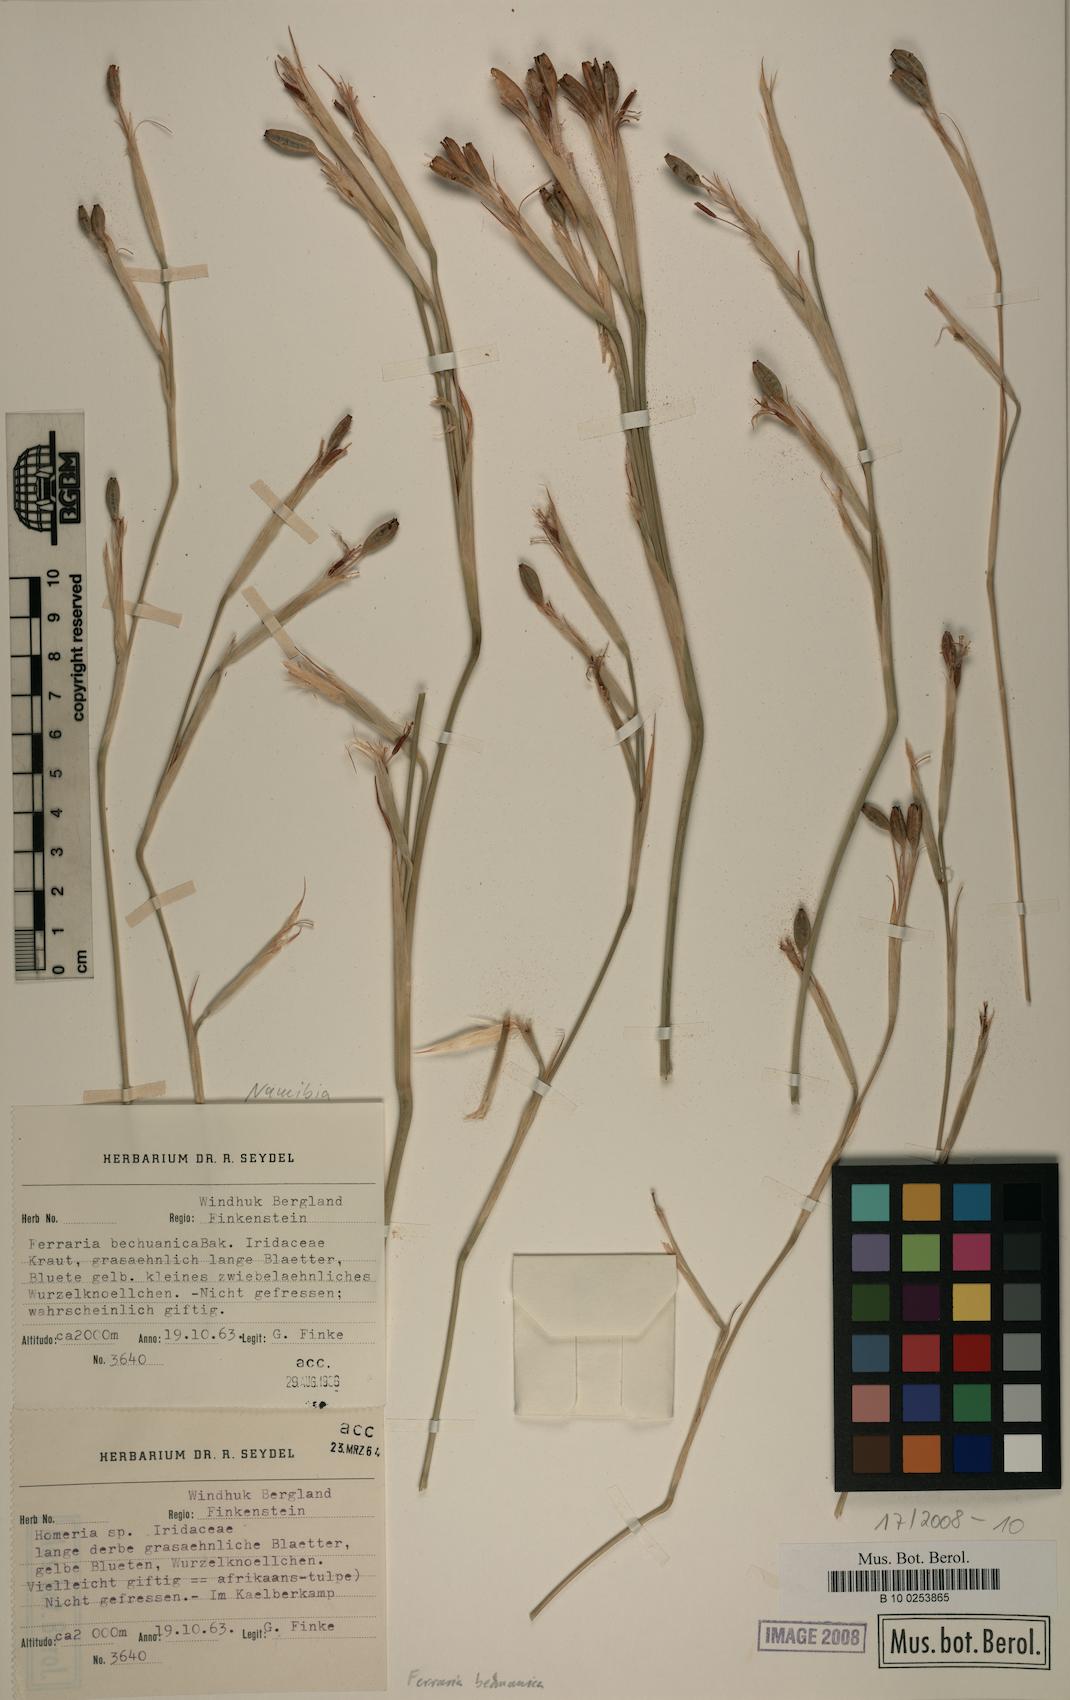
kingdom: Plantae
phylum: Tracheophyta
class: Liliopsida
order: Asparagales
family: Iridaceae
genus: Ferraria
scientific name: Ferraria glutinosa
